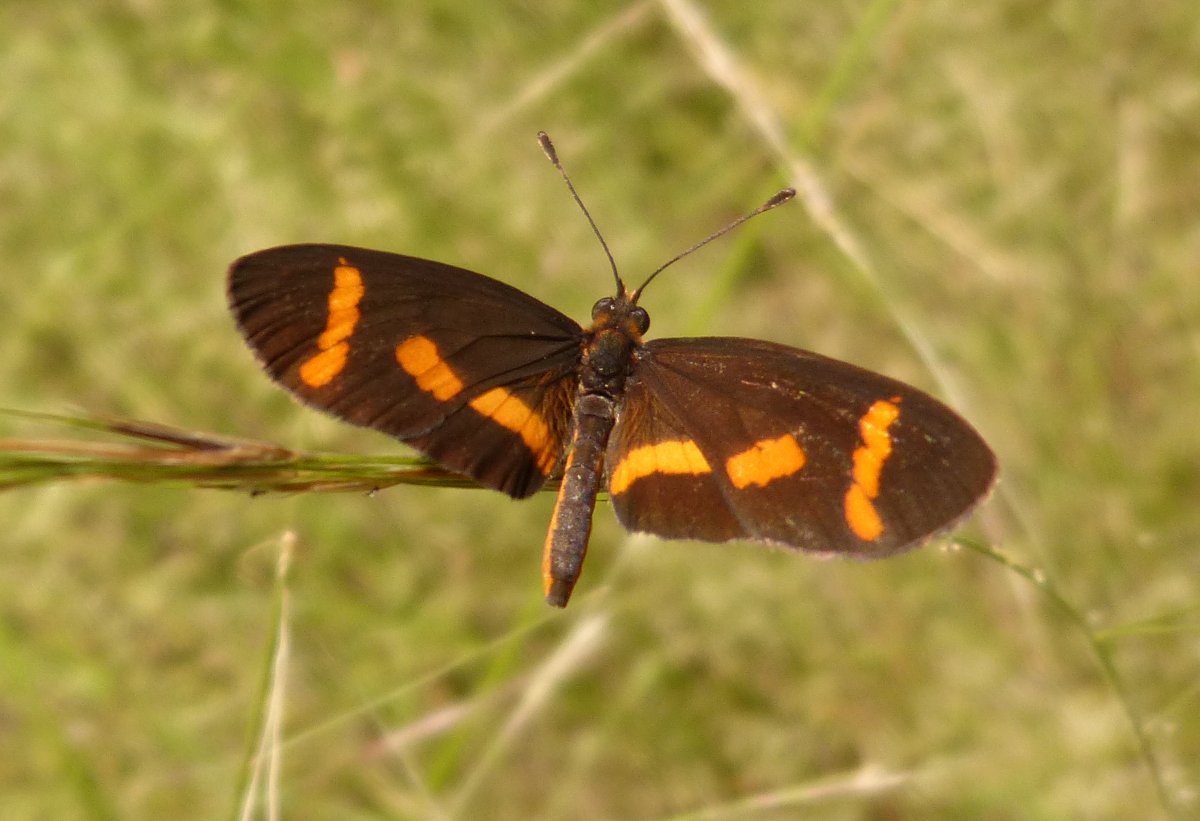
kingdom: Animalia
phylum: Arthropoda
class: Insecta
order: Lepidoptera
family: Nymphalidae
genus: Microtia
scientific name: Microtia elva
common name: Elf
